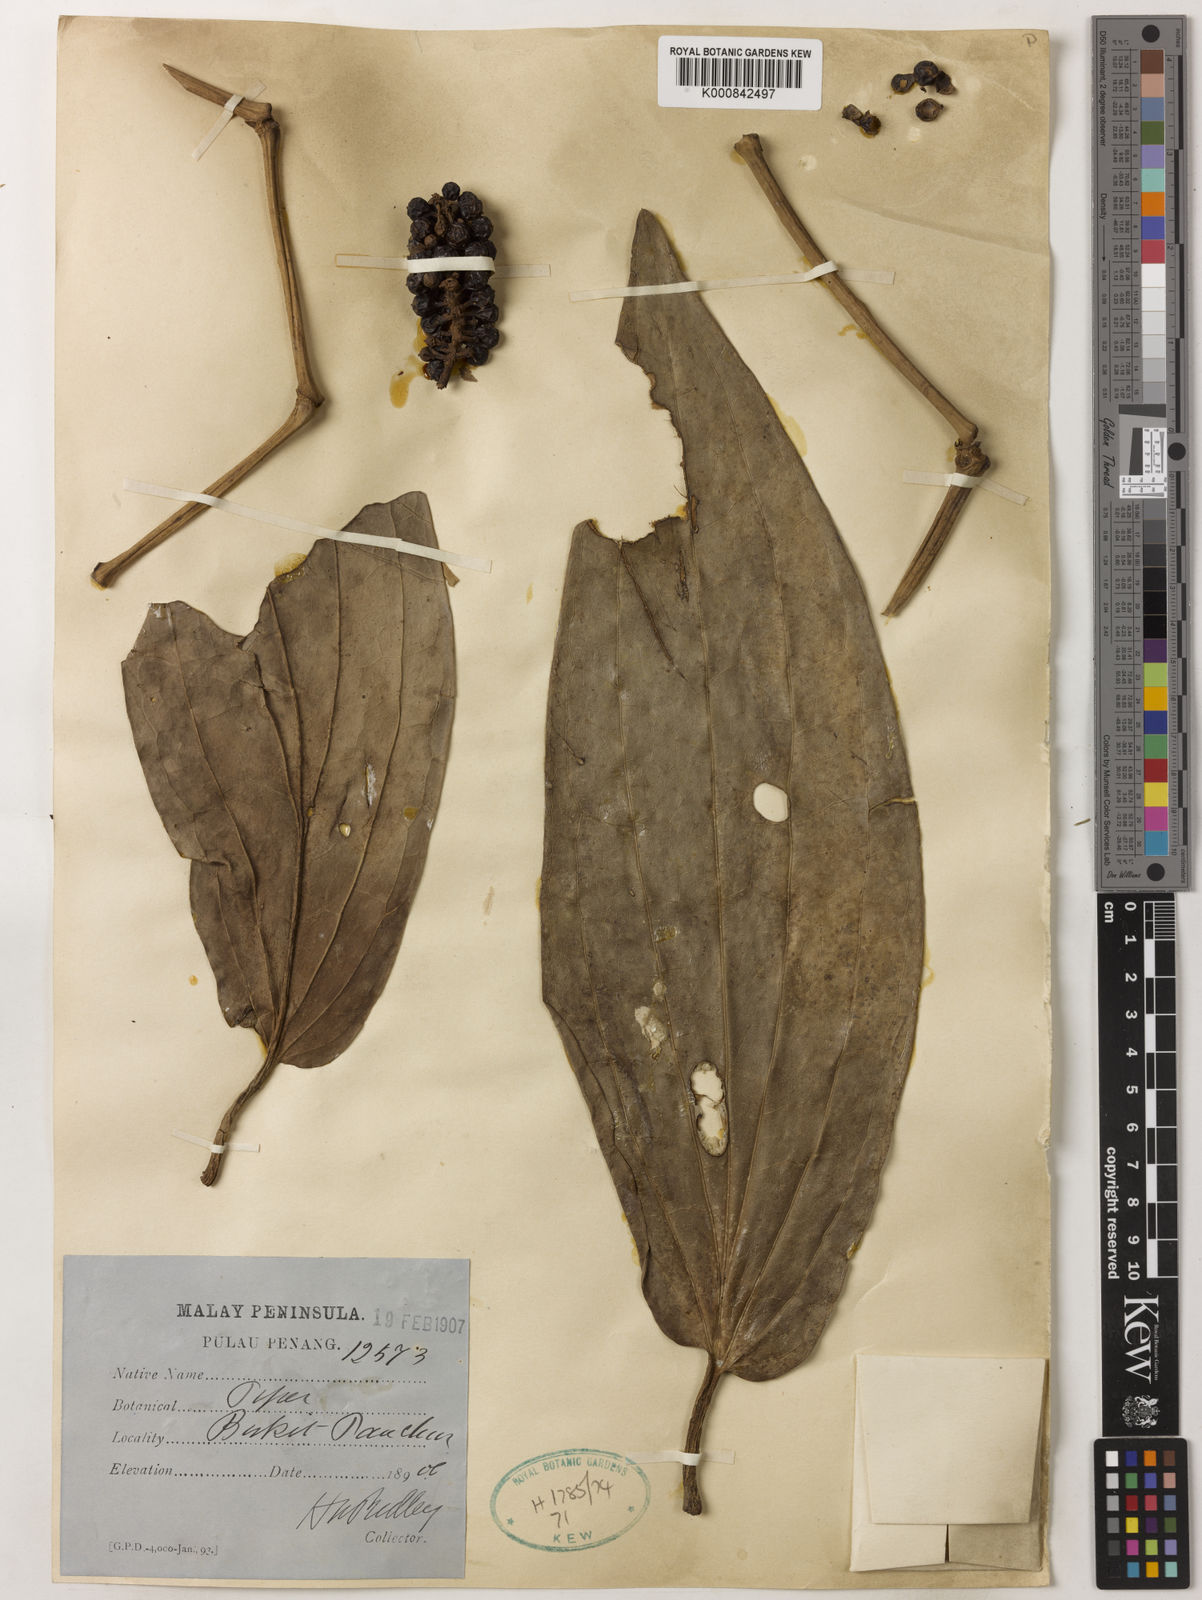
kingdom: Plantae
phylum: Tracheophyta
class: Magnoliopsida
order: Piperales
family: Piperaceae
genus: Piper
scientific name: Piper
